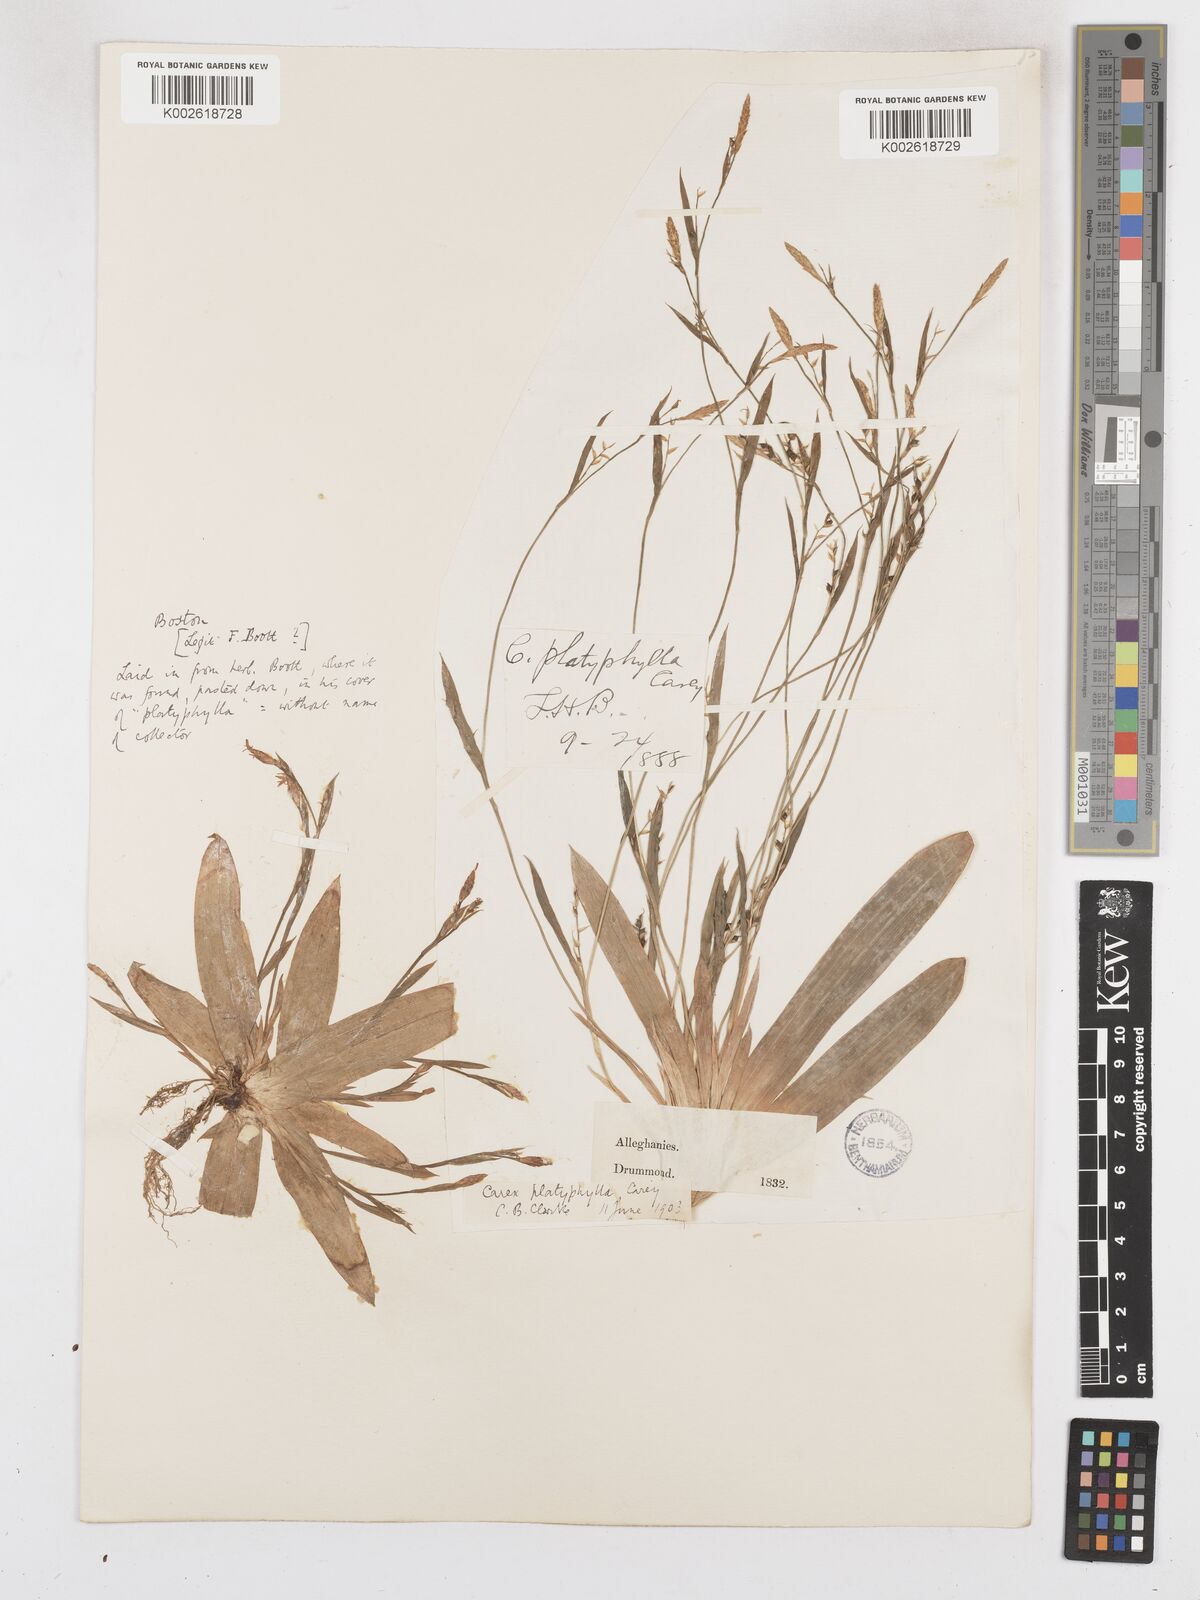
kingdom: Plantae
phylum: Tracheophyta
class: Liliopsida
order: Poales
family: Cyperaceae
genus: Carex
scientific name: Carex platyphylla
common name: Broad-leaved sedge
